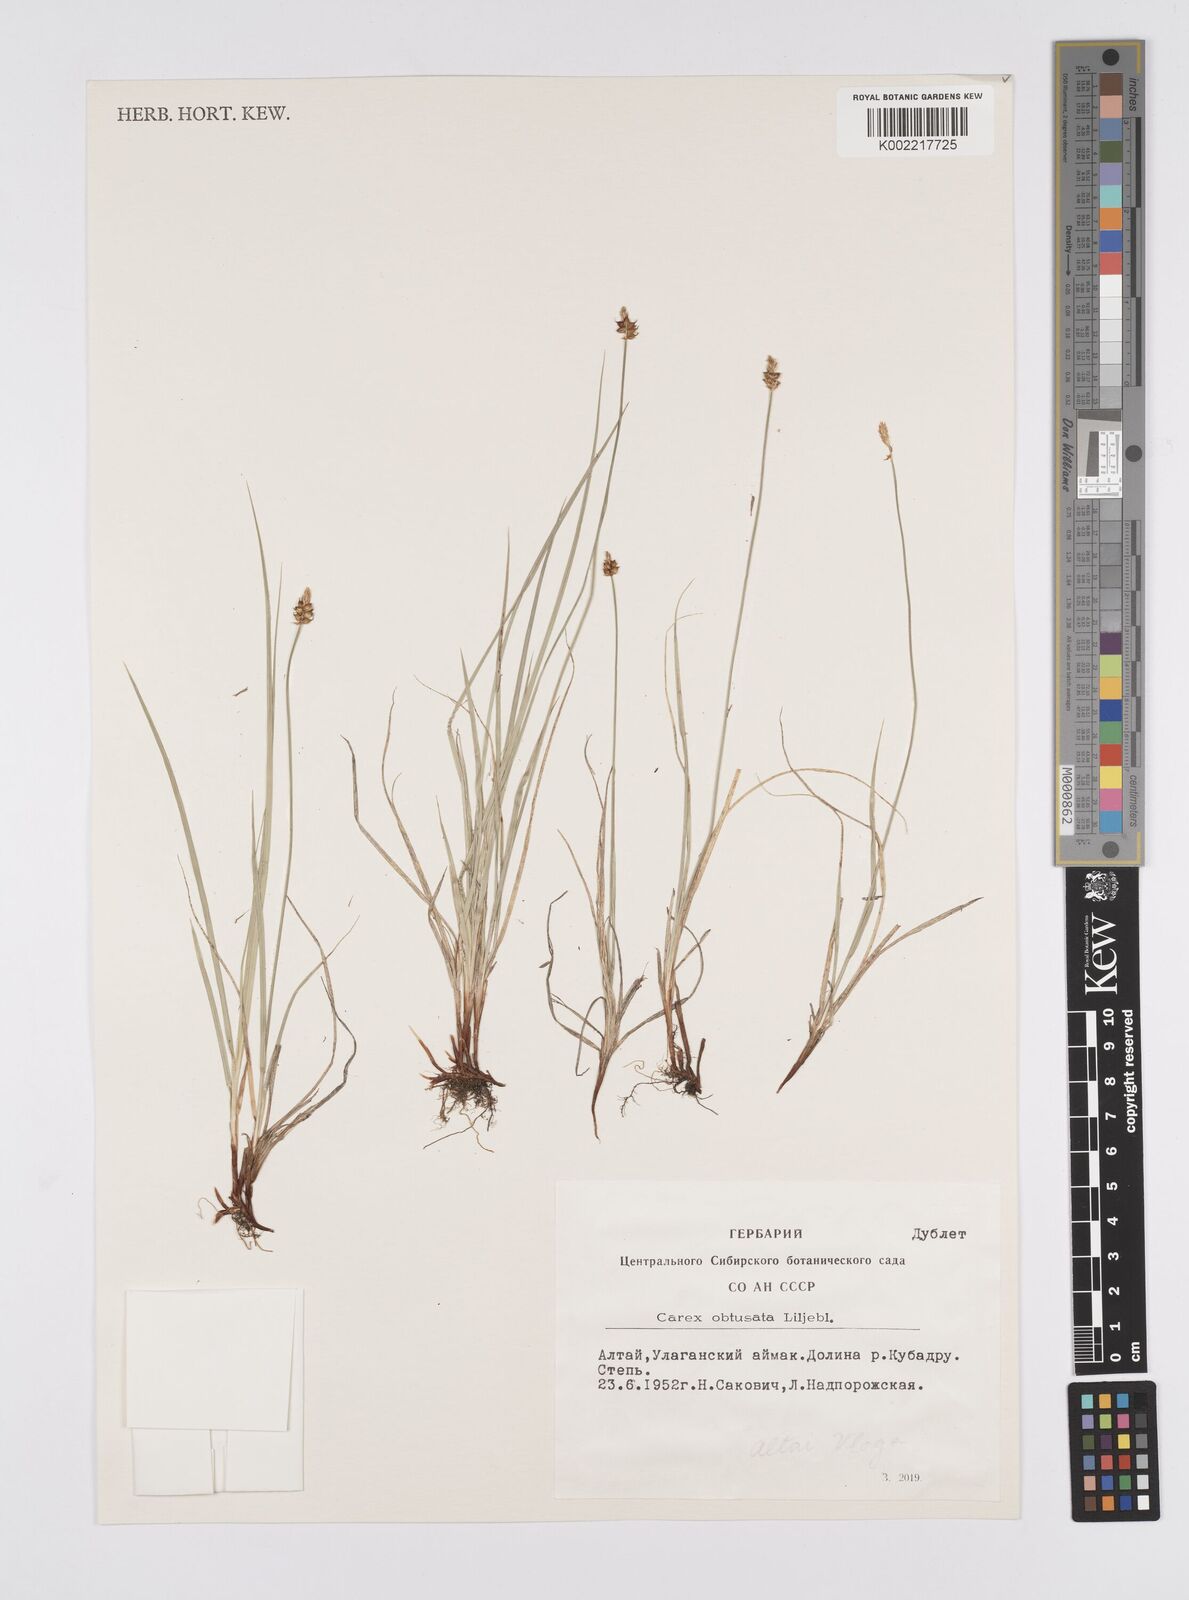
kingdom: Plantae
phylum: Tracheophyta
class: Liliopsida
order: Poales
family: Cyperaceae
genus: Carex
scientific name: Carex obtusata
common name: Blunt sedge
